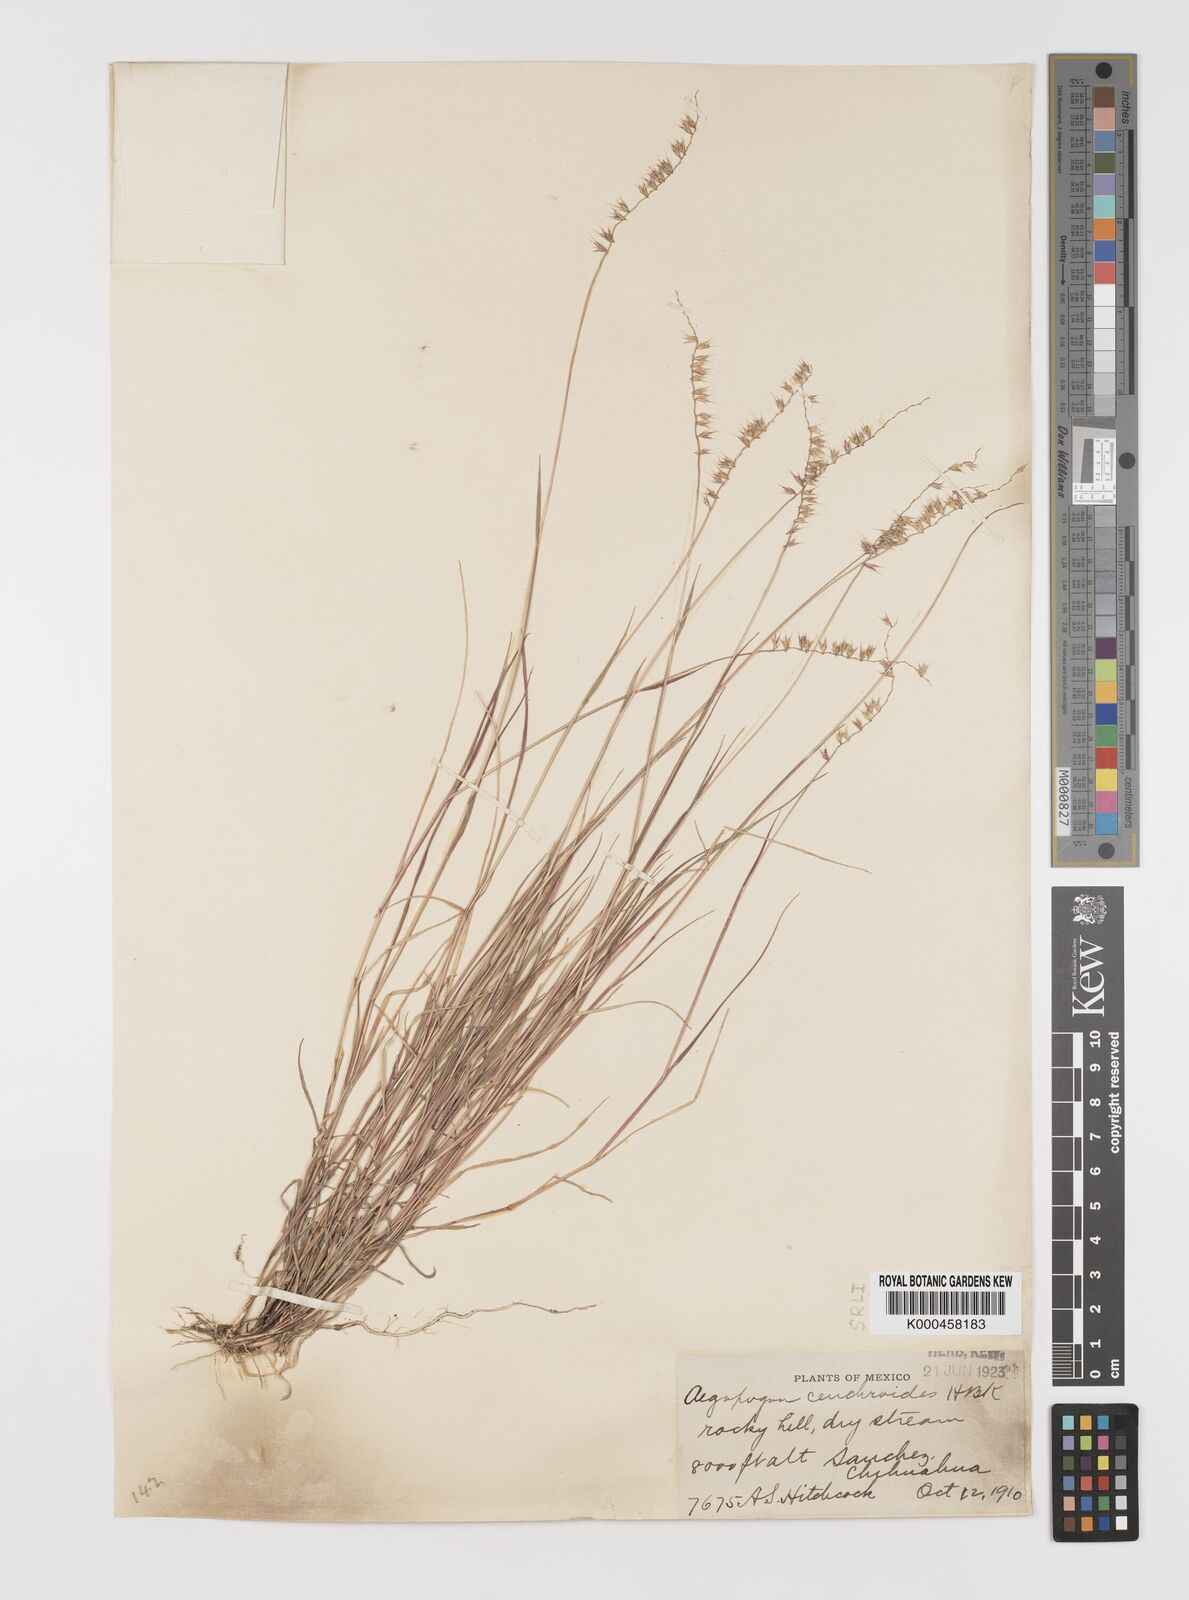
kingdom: Plantae
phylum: Tracheophyta
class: Liliopsida
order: Poales
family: Poaceae
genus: Muhlenbergia
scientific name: Muhlenbergia
